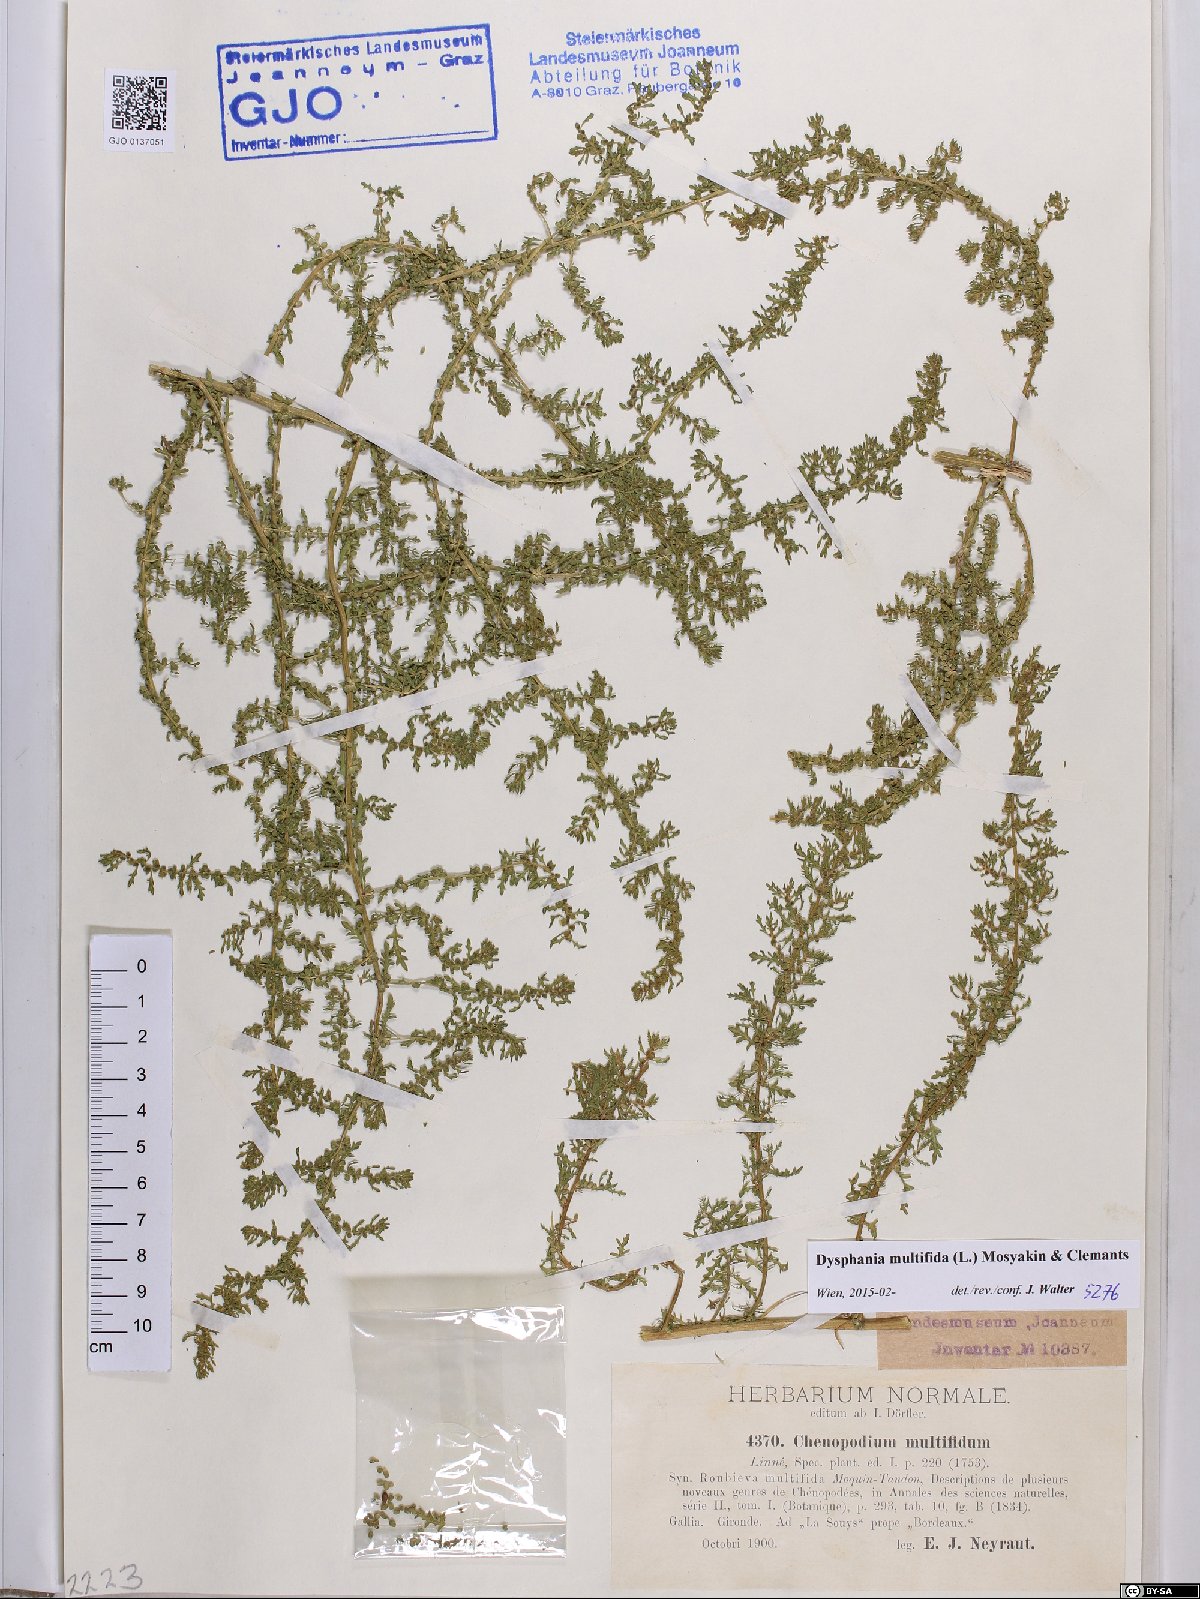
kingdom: Plantae
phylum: Tracheophyta
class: Magnoliopsida
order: Caryophyllales
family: Amaranthaceae
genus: Dysphania
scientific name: Dysphania multifida
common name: Cutleaf goosefoot
